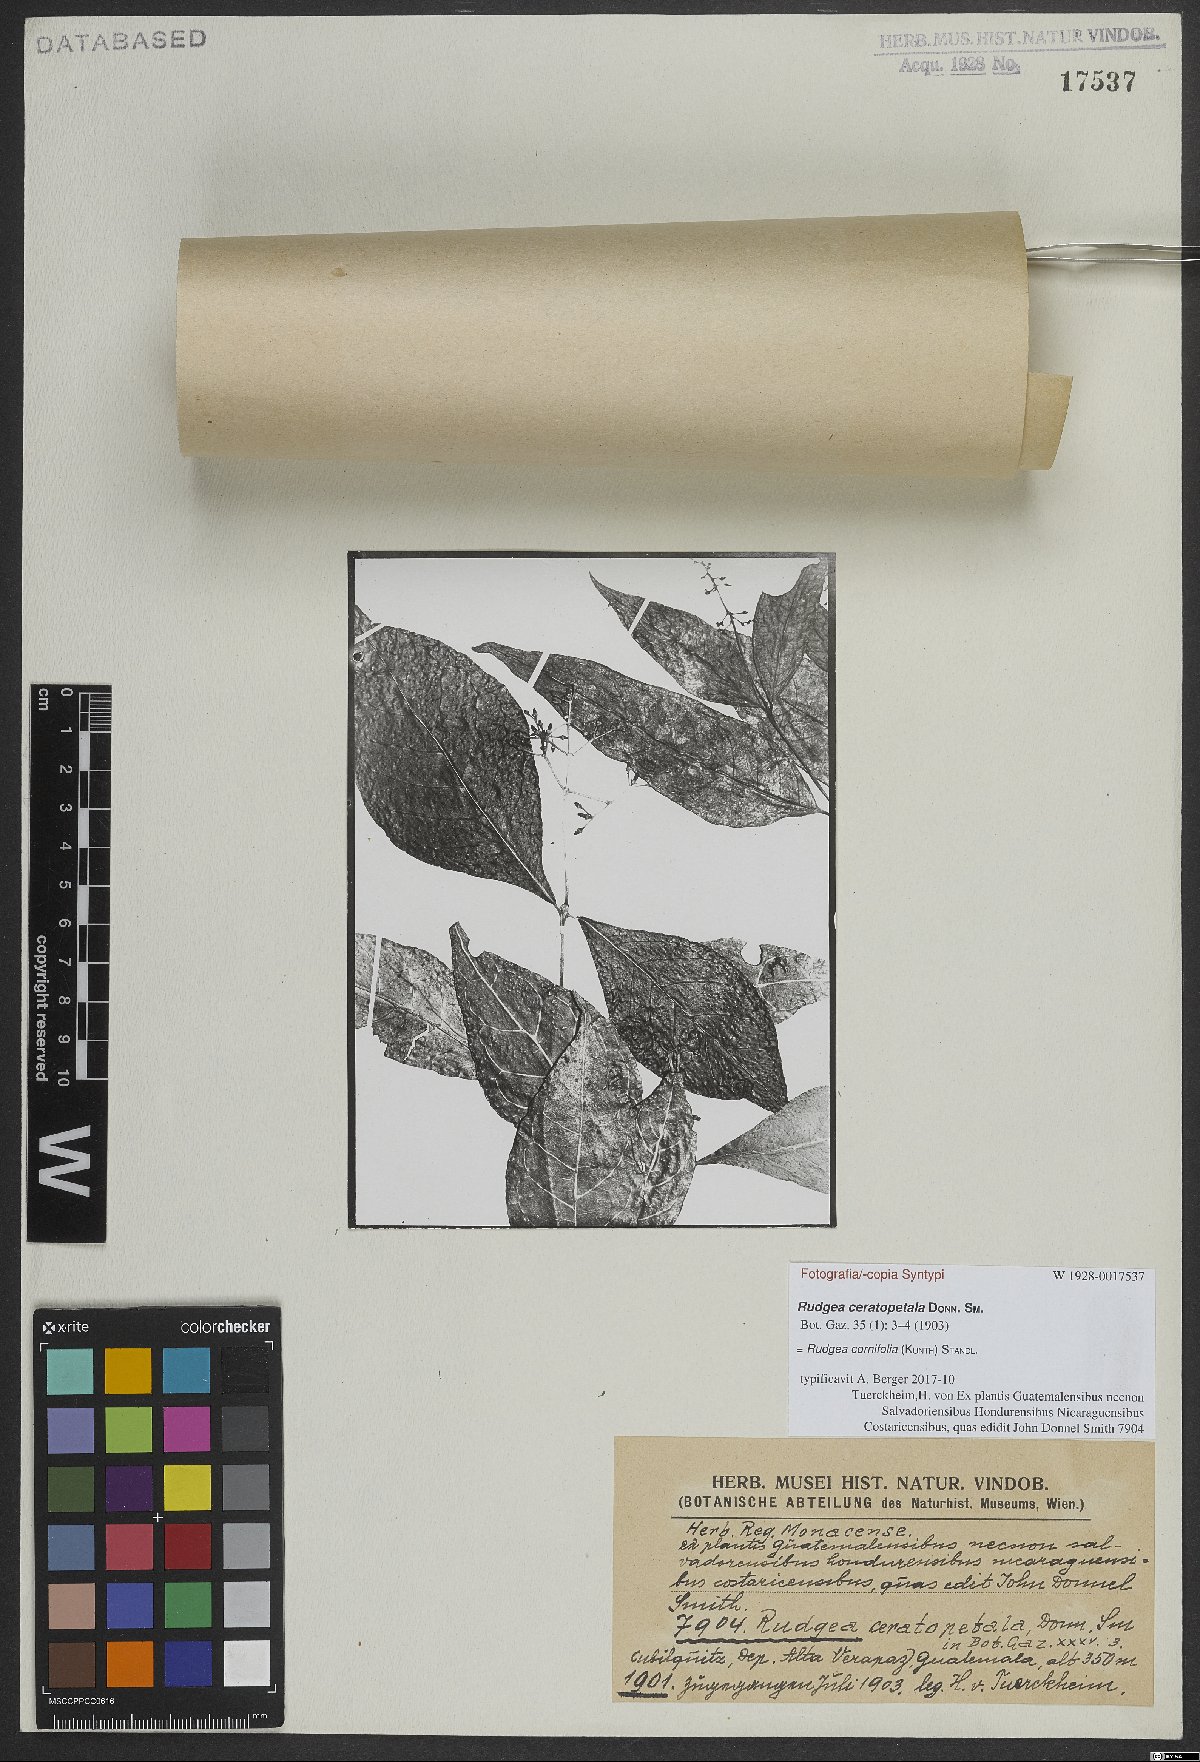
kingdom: Plantae
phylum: Tracheophyta
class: Magnoliopsida
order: Gentianales
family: Rubiaceae
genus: Rudgea
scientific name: Rudgea cornifolia
